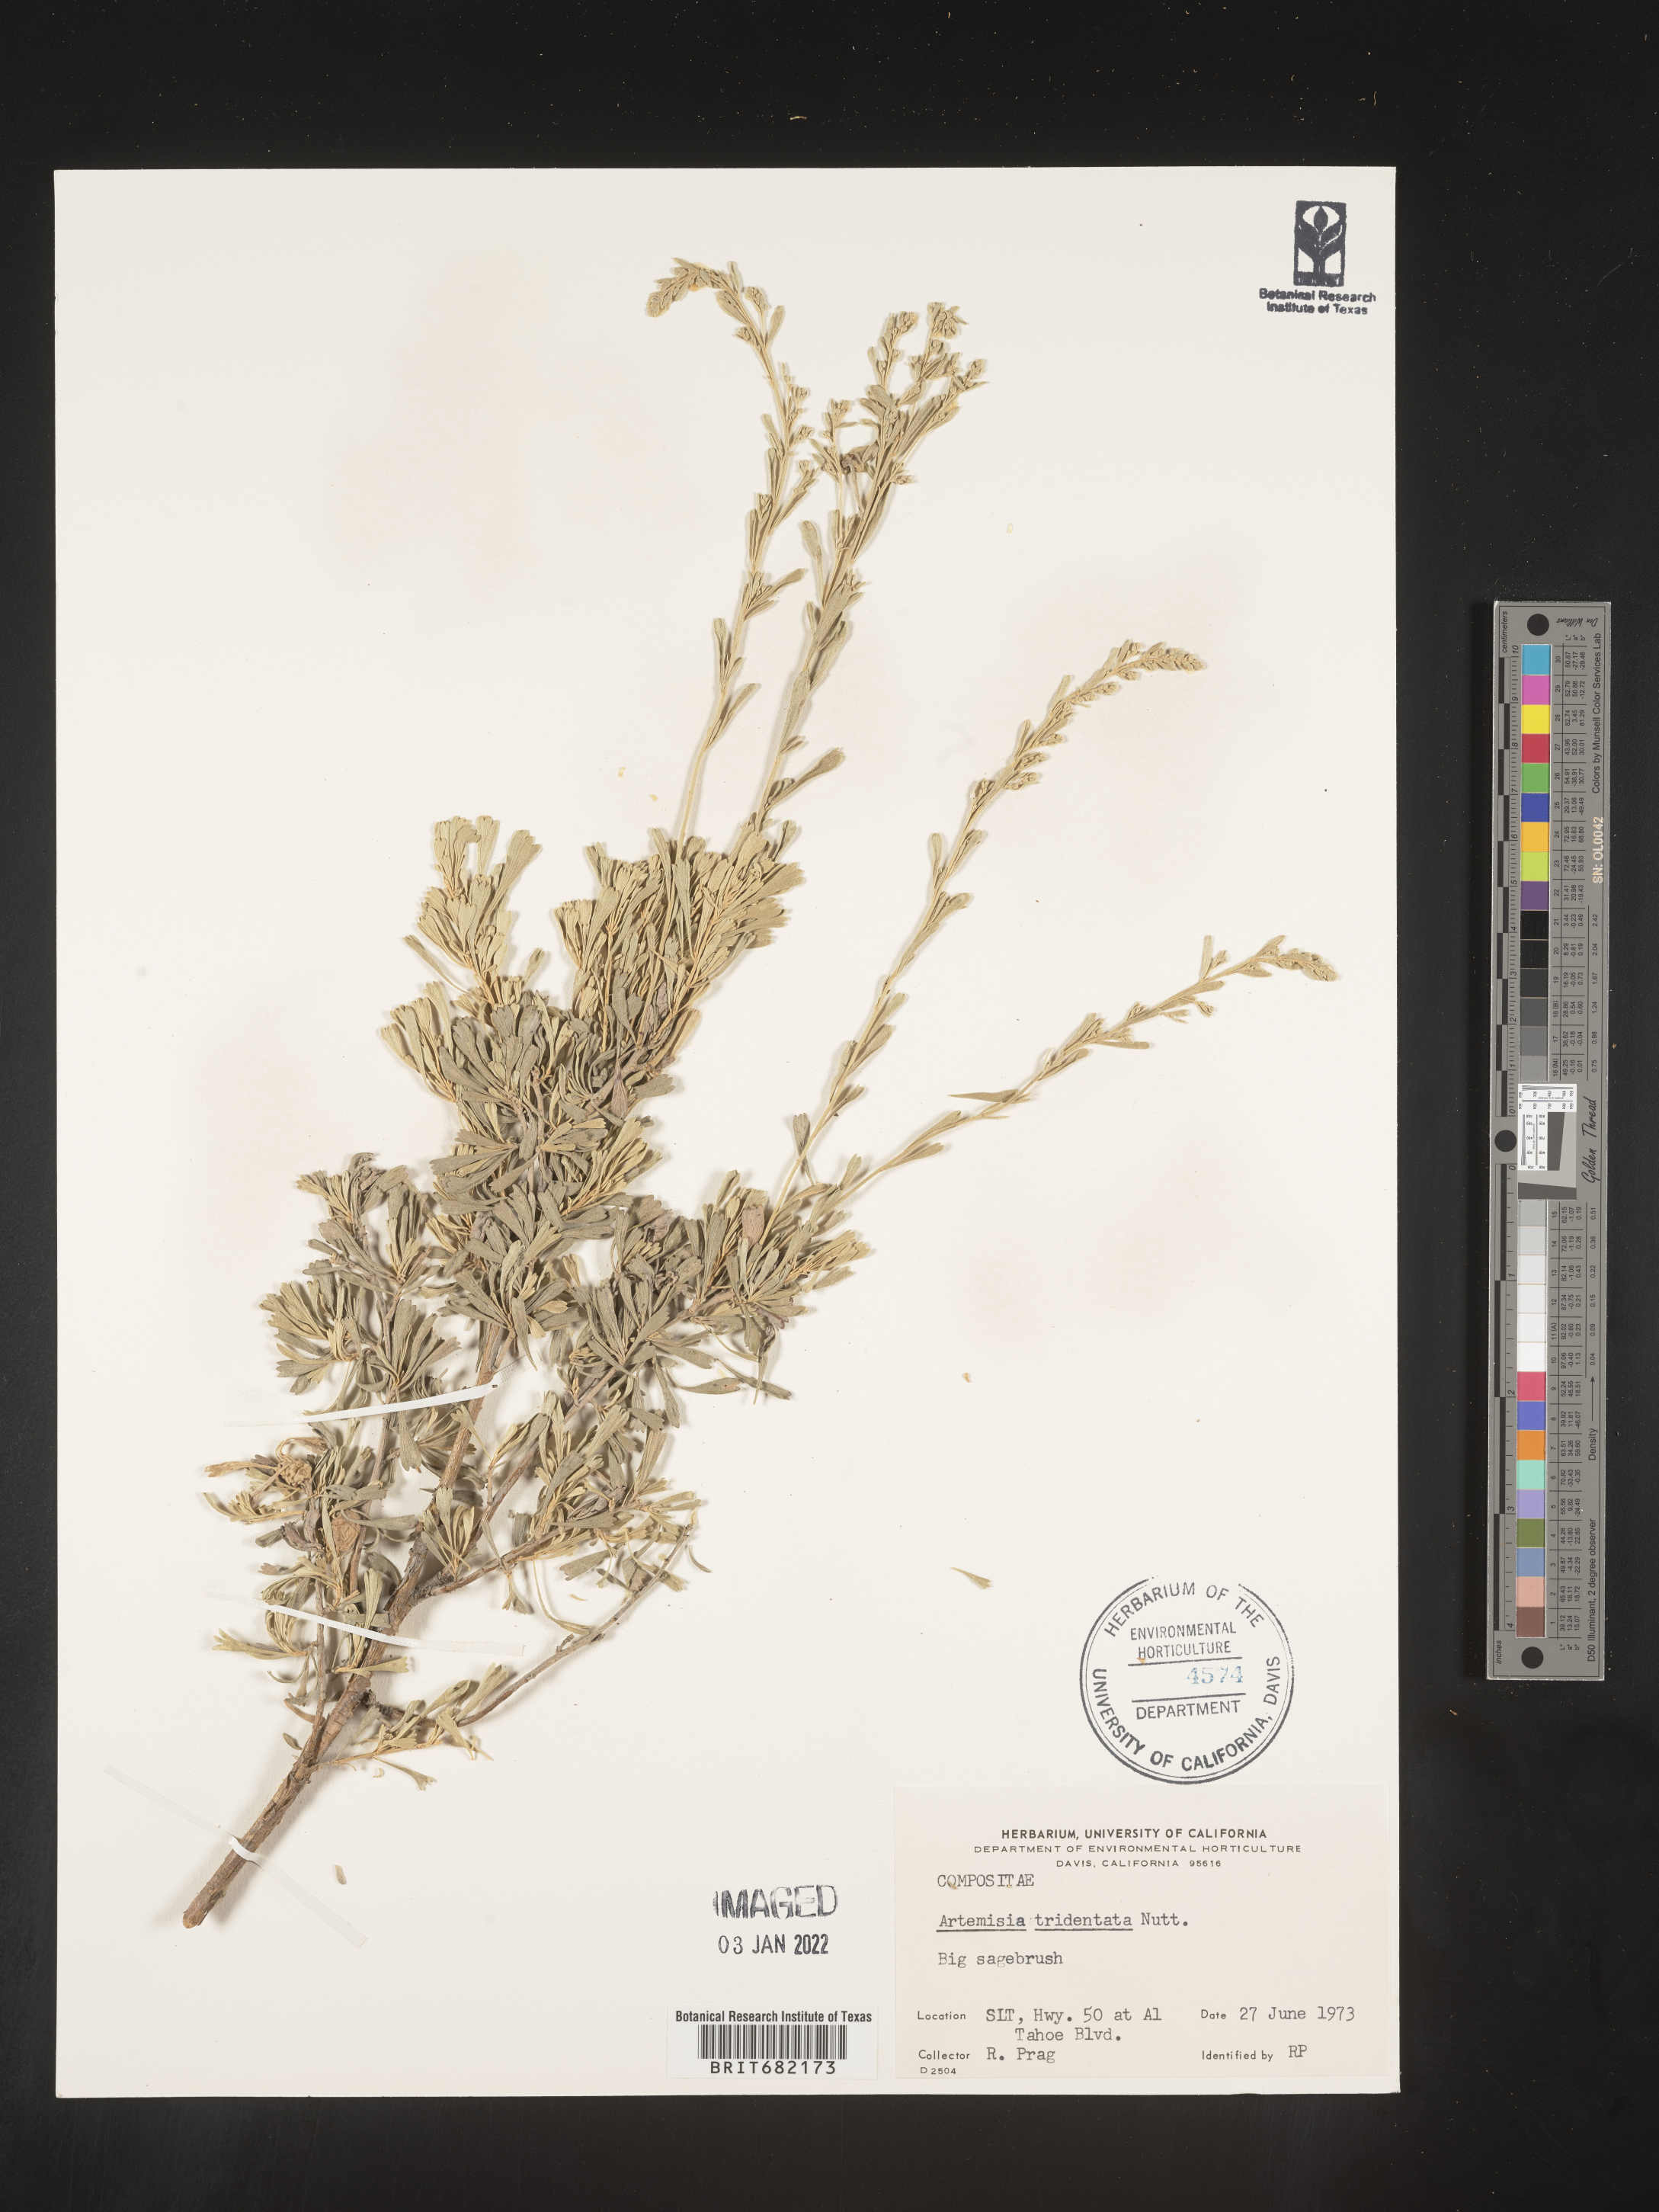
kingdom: Plantae
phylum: Tracheophyta
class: Magnoliopsida
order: Asterales
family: Asteraceae
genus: Artemisia
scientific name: Artemisia tridentata
